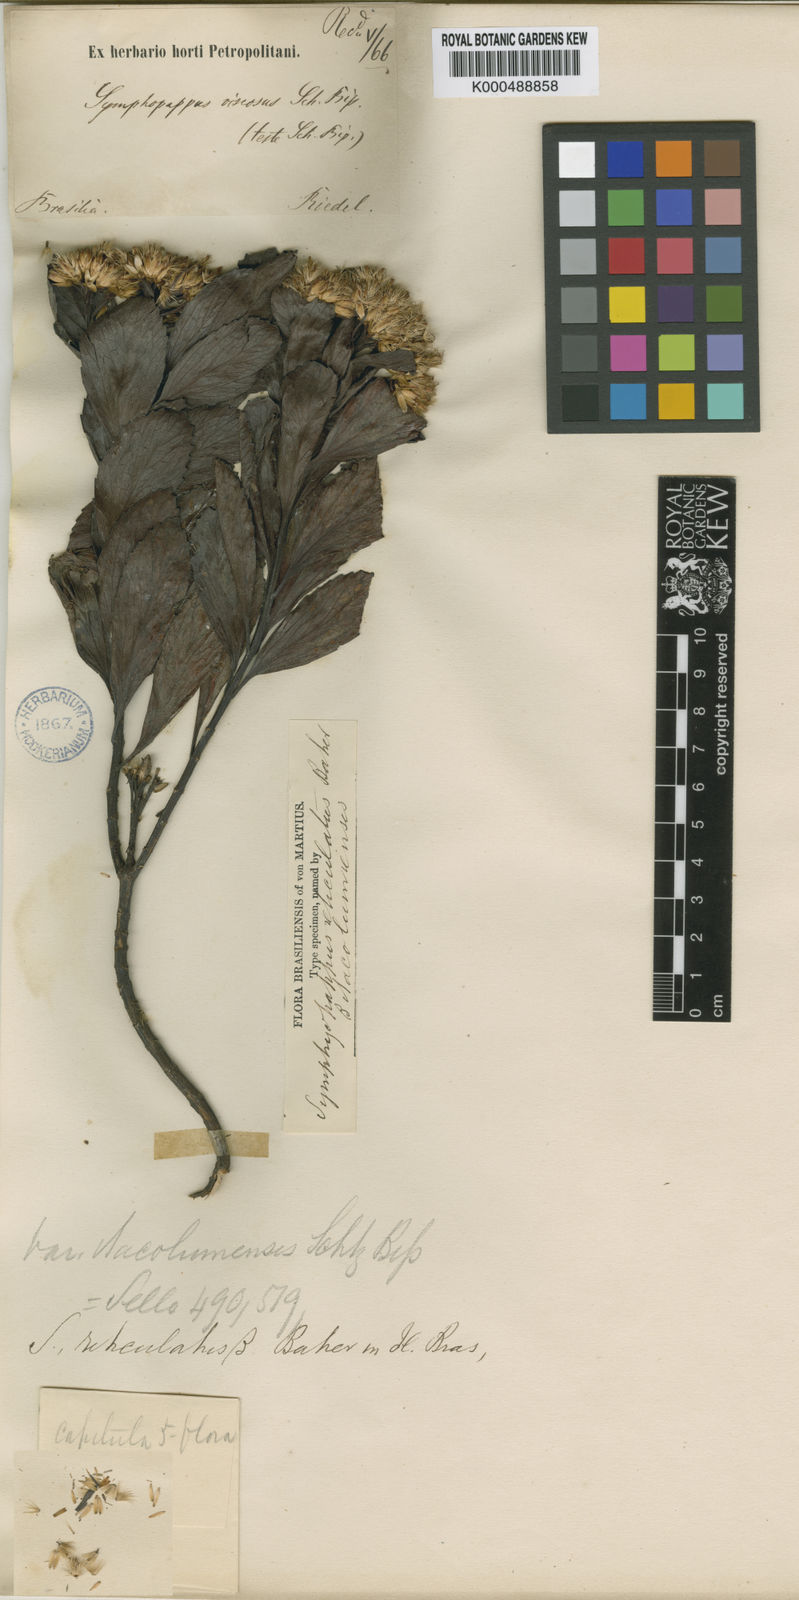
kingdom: Plantae
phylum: Tracheophyta
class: Magnoliopsida
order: Asterales
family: Asteraceae
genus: Symphyopappus
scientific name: Symphyopappus reticulatus
